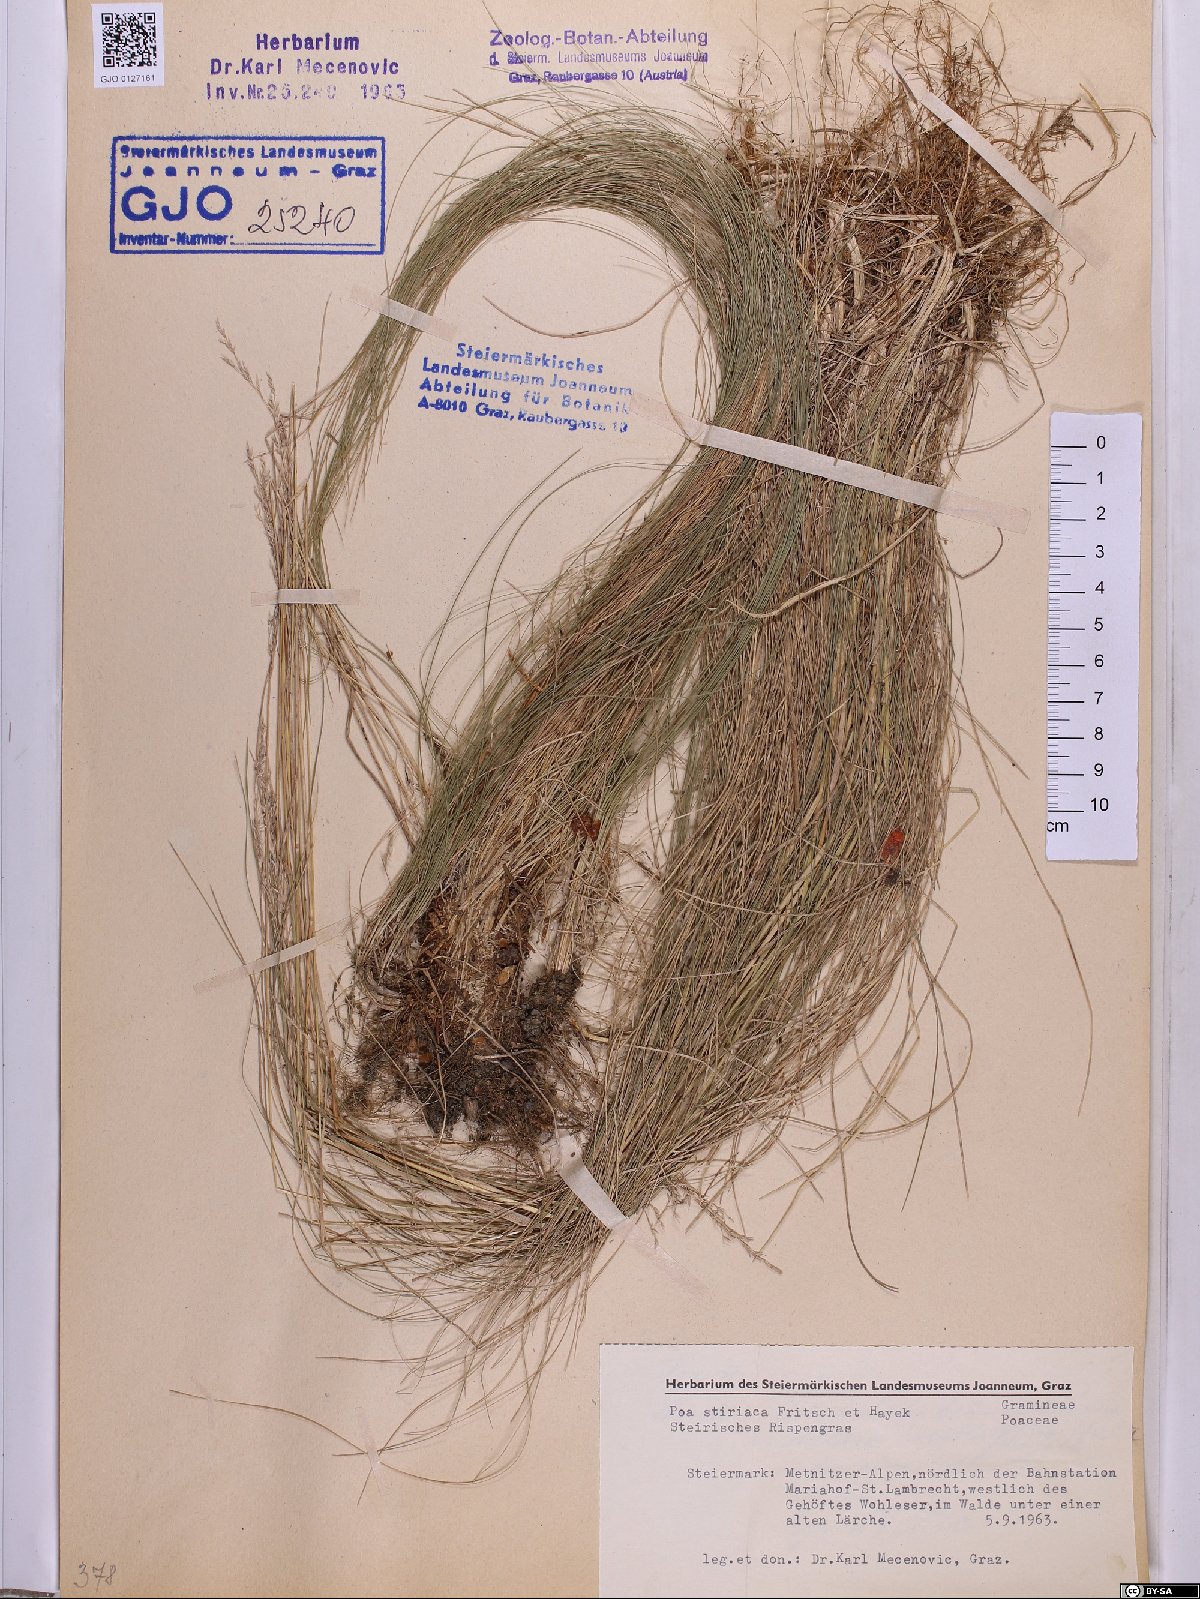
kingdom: Plantae
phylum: Tracheophyta
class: Liliopsida
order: Poales
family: Poaceae
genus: Poa
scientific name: Poa stiriaca
